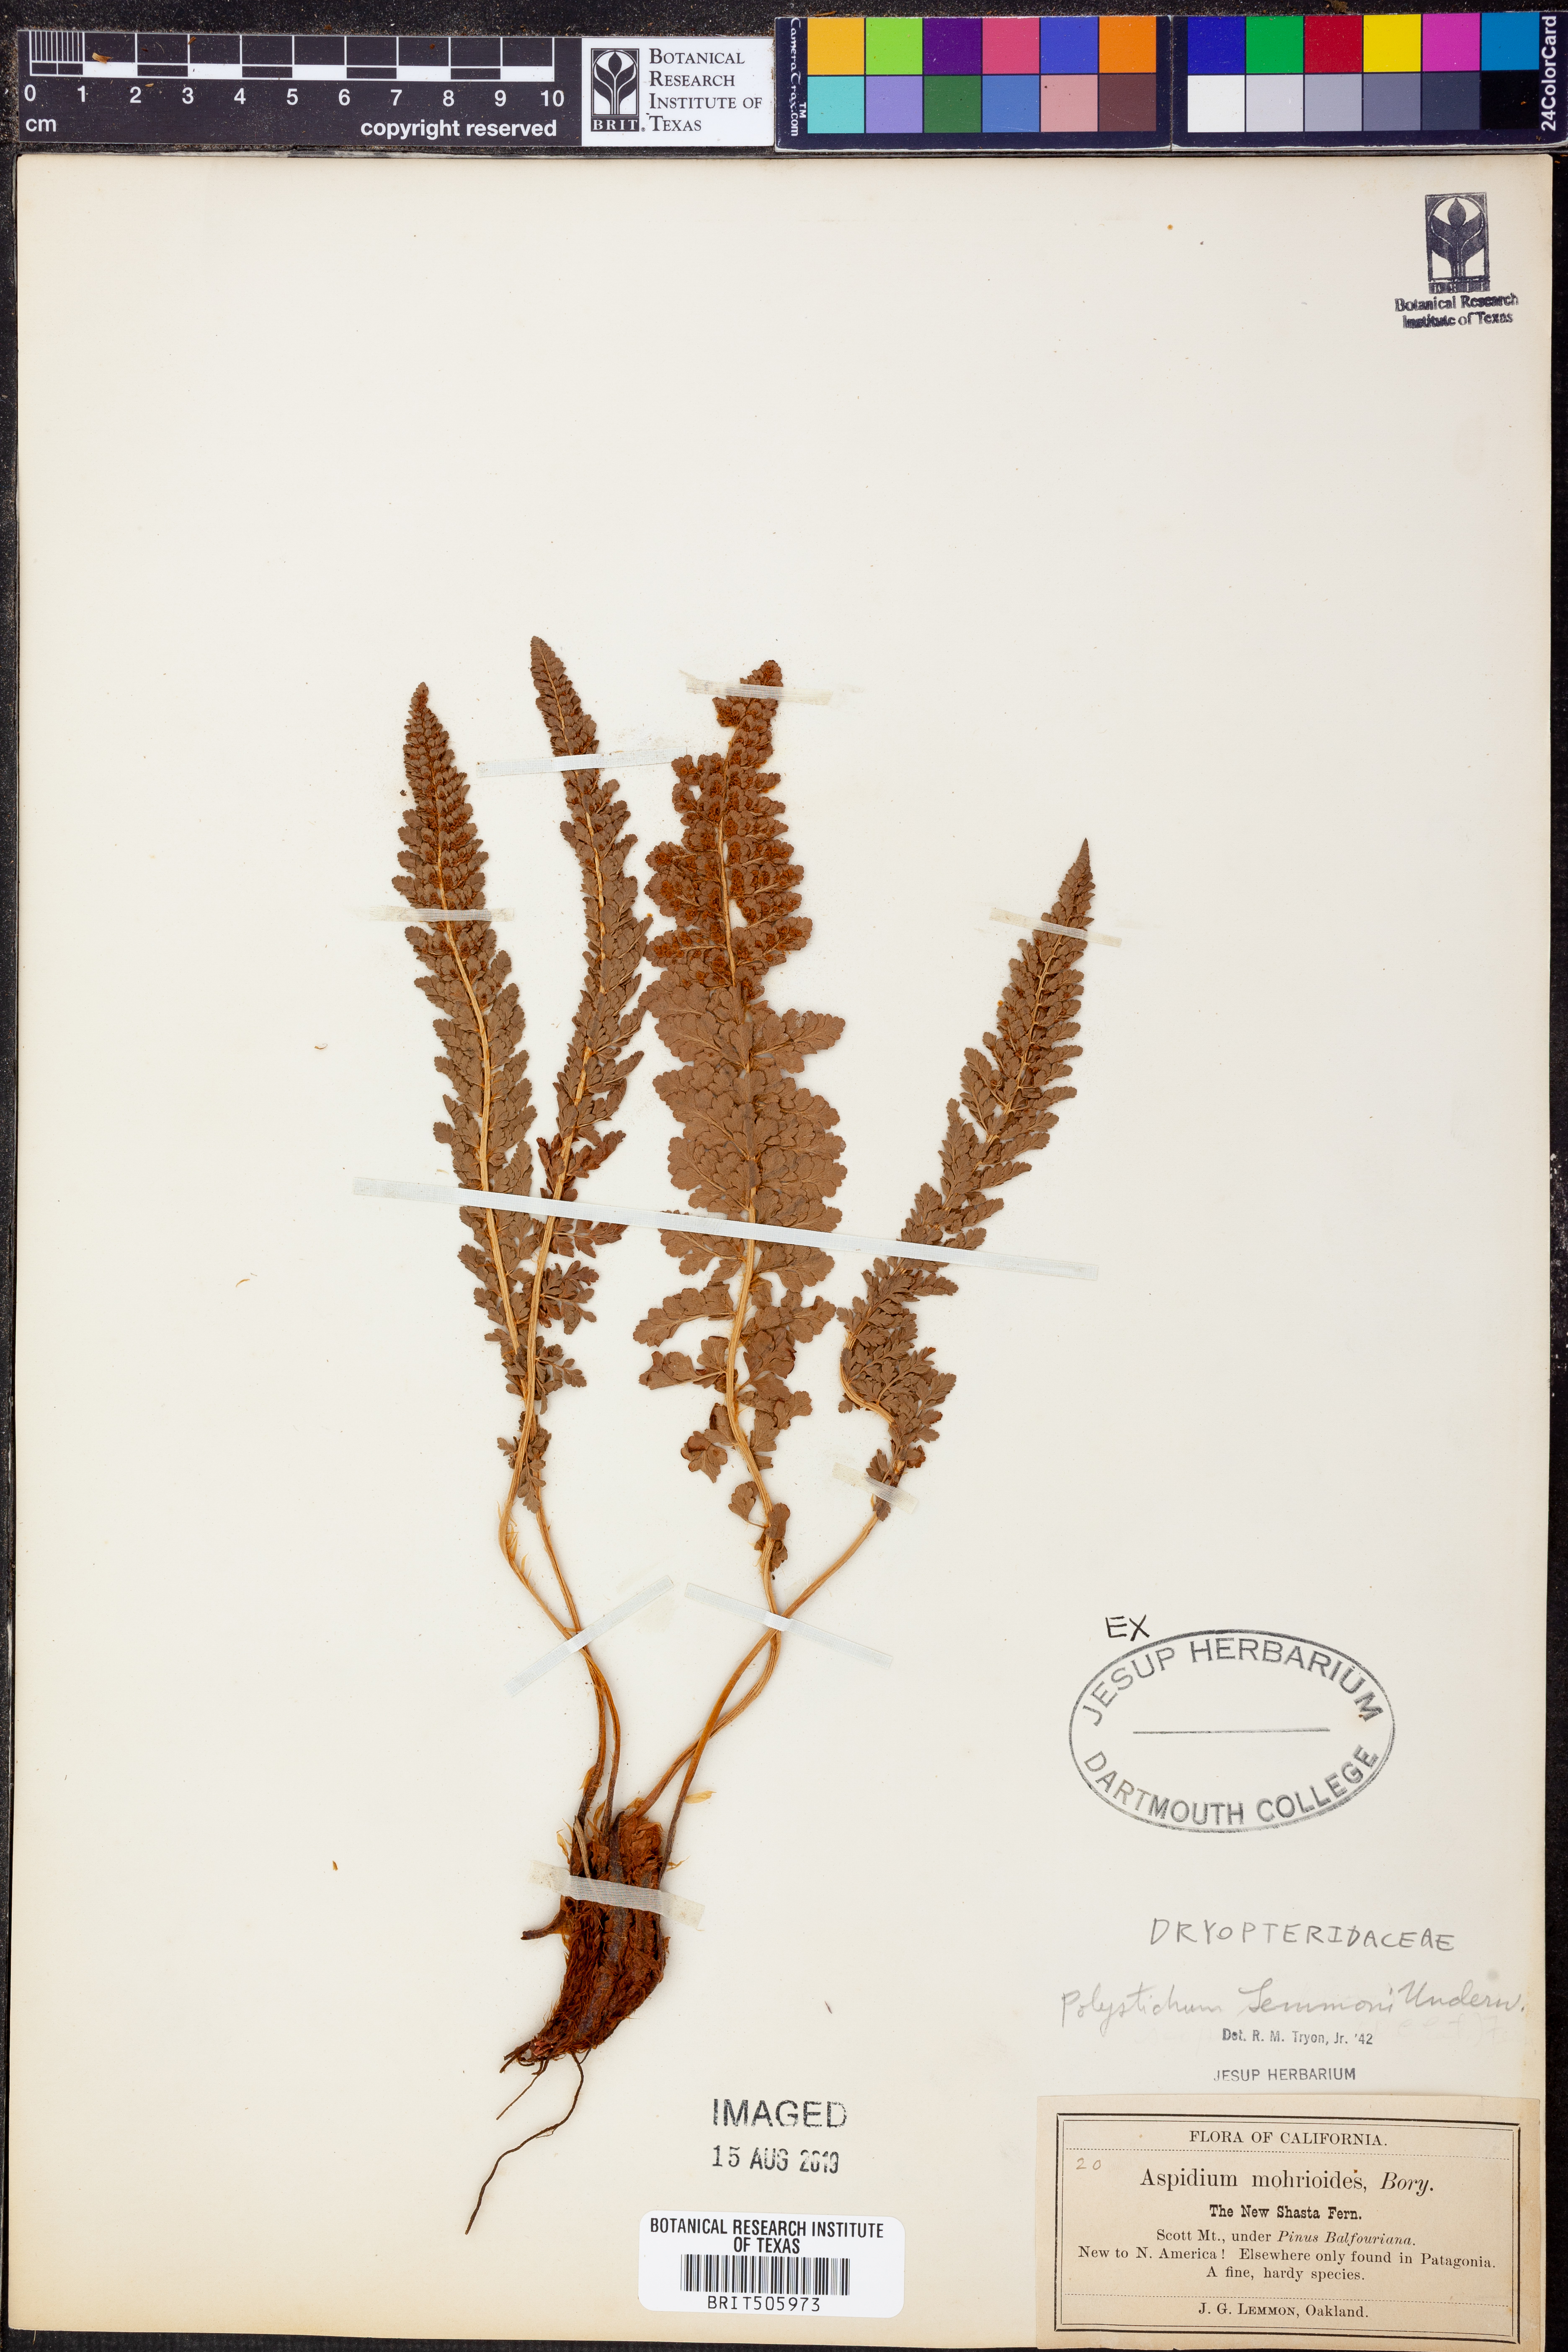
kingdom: Plantae
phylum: Tracheophyta
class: Polypodiopsida
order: Polypodiales
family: Dryopteridaceae
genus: Polystichum
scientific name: Polystichum lemmonii
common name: Lemmon's holly fern
